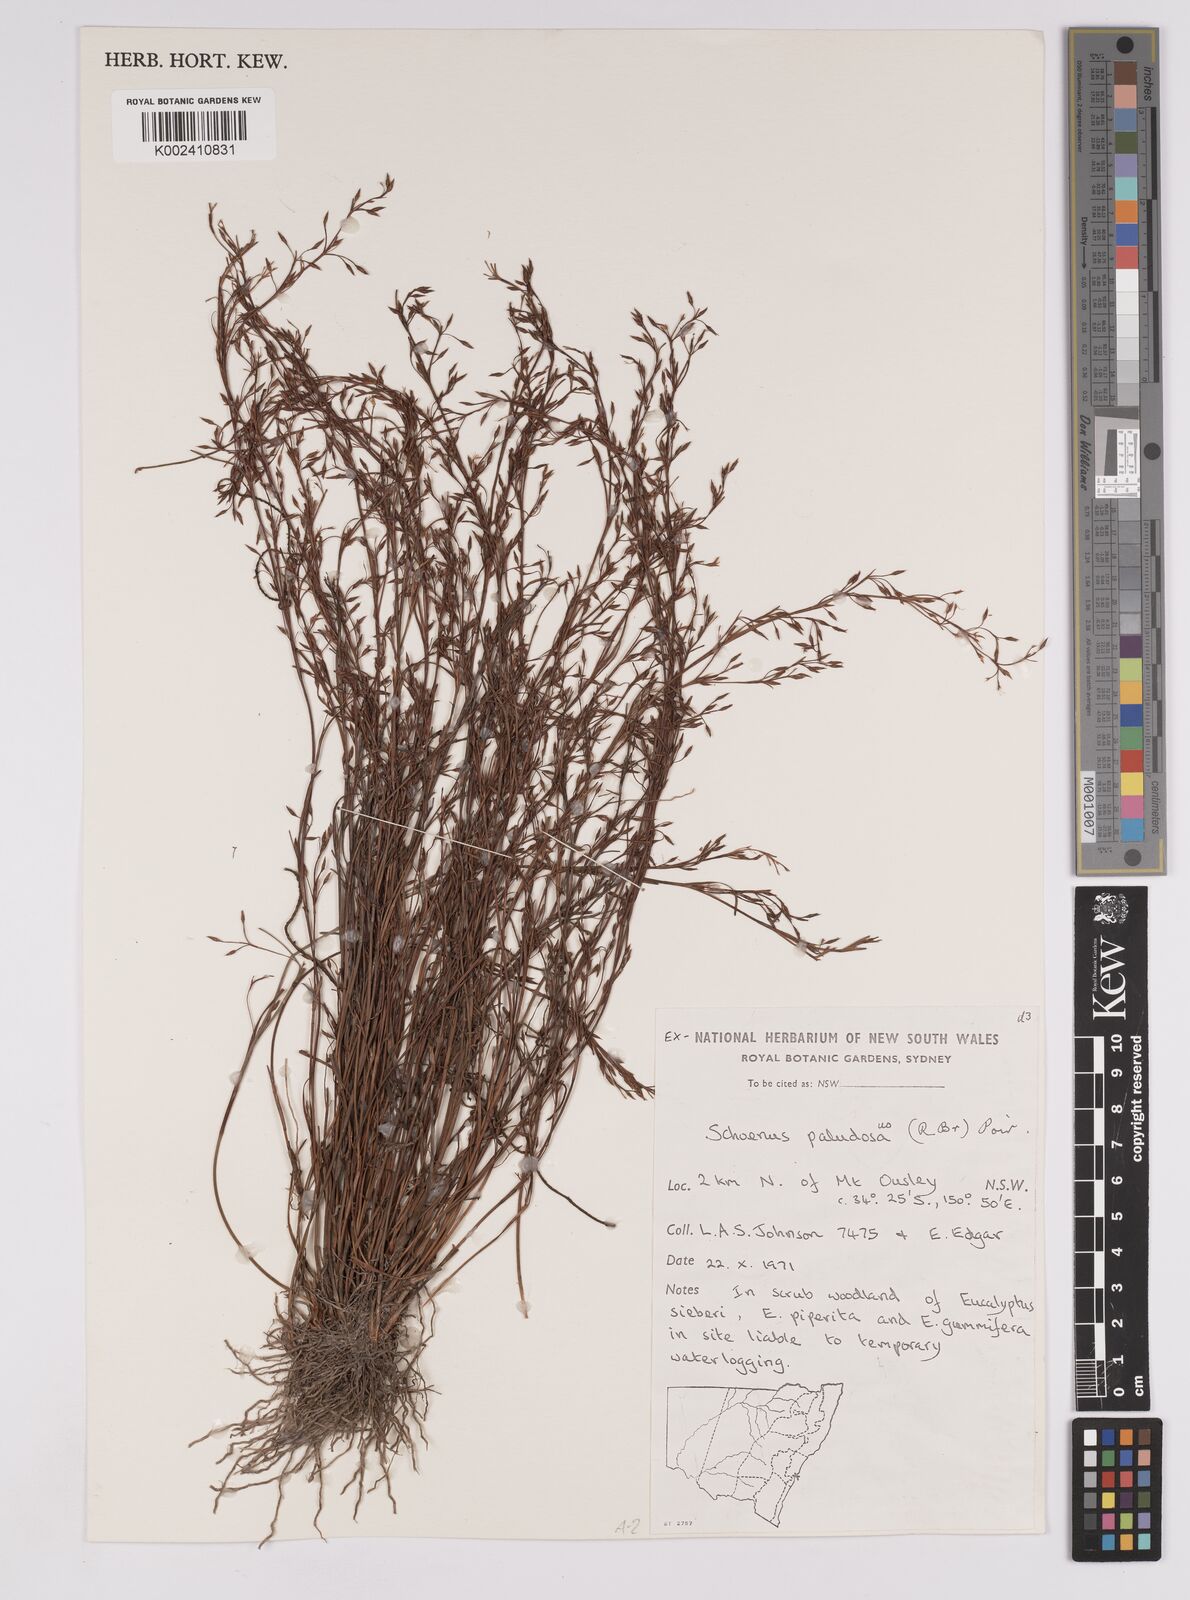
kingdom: Plantae
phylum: Tracheophyta
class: Liliopsida
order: Poales
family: Cyperaceae
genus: Anthelepis
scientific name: Anthelepis paludosa
